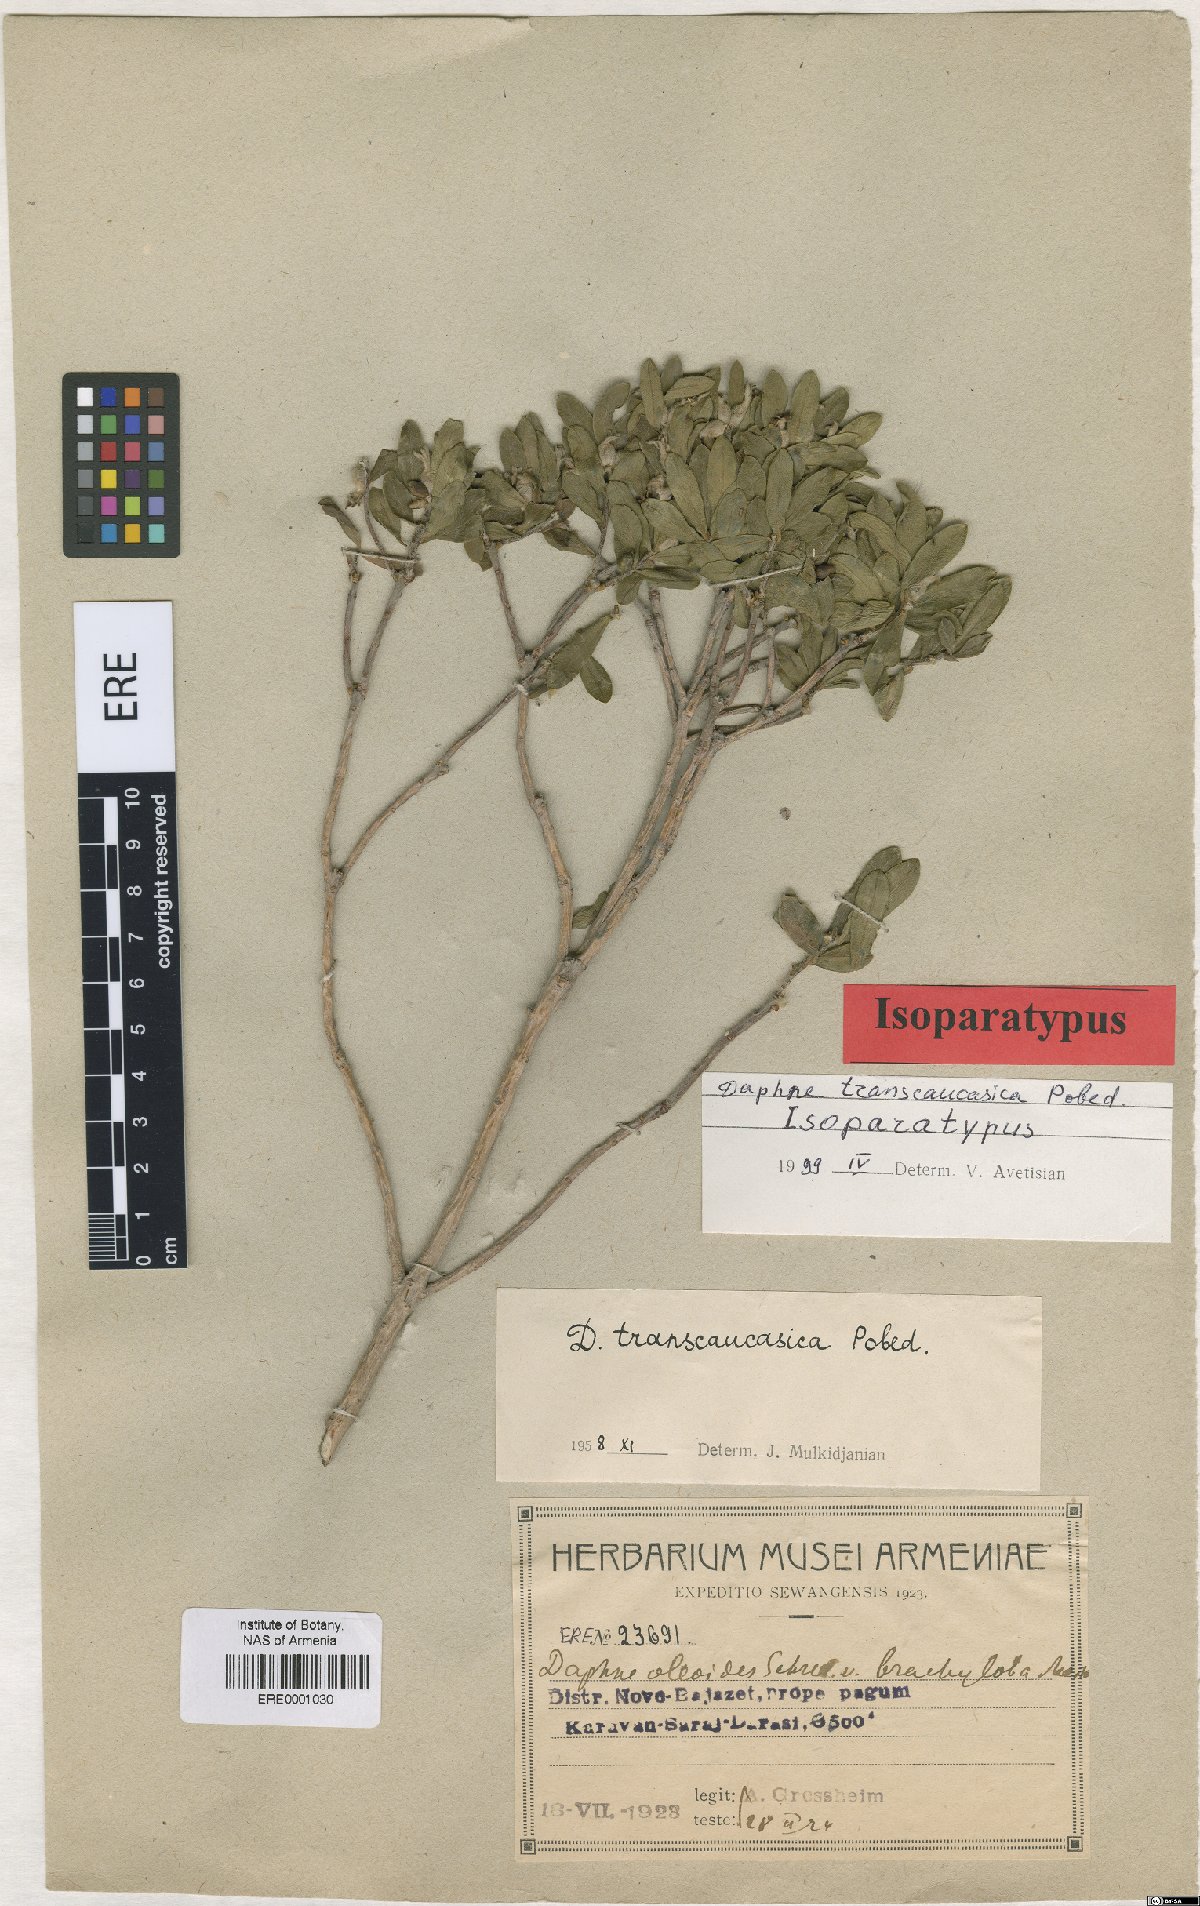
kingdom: Plantae
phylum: Tracheophyta
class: Magnoliopsida
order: Malvales
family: Thymelaeaceae
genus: Daphne
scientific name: Daphne kurdica
